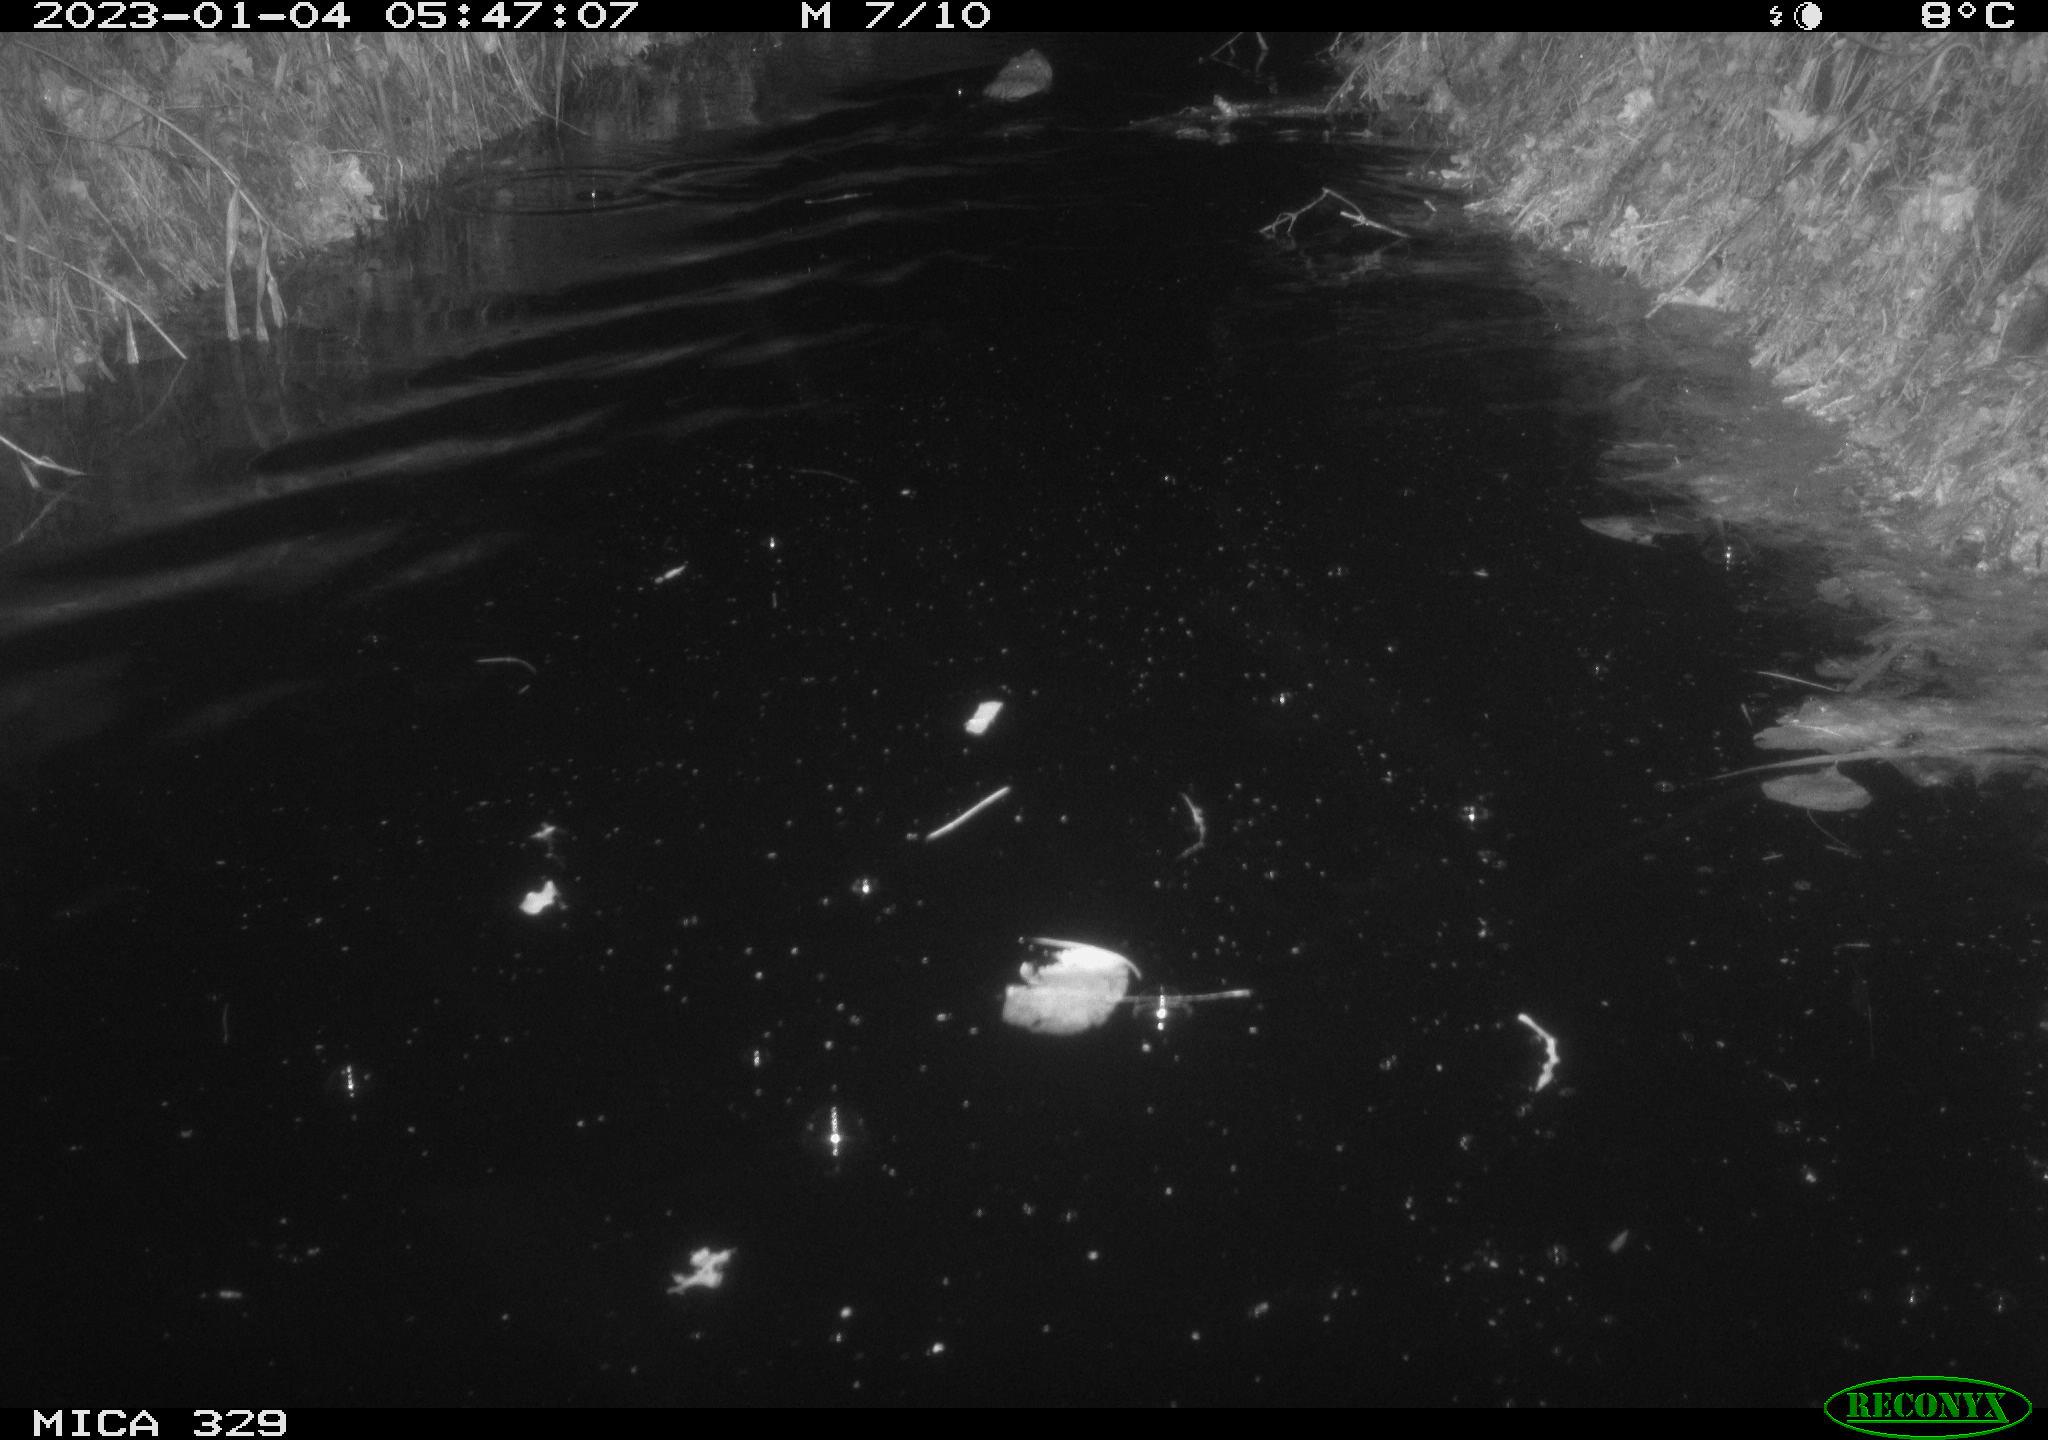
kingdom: Animalia
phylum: Chordata
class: Mammalia
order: Rodentia
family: Cricetidae
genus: Ondatra
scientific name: Ondatra zibethicus
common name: Muskrat
